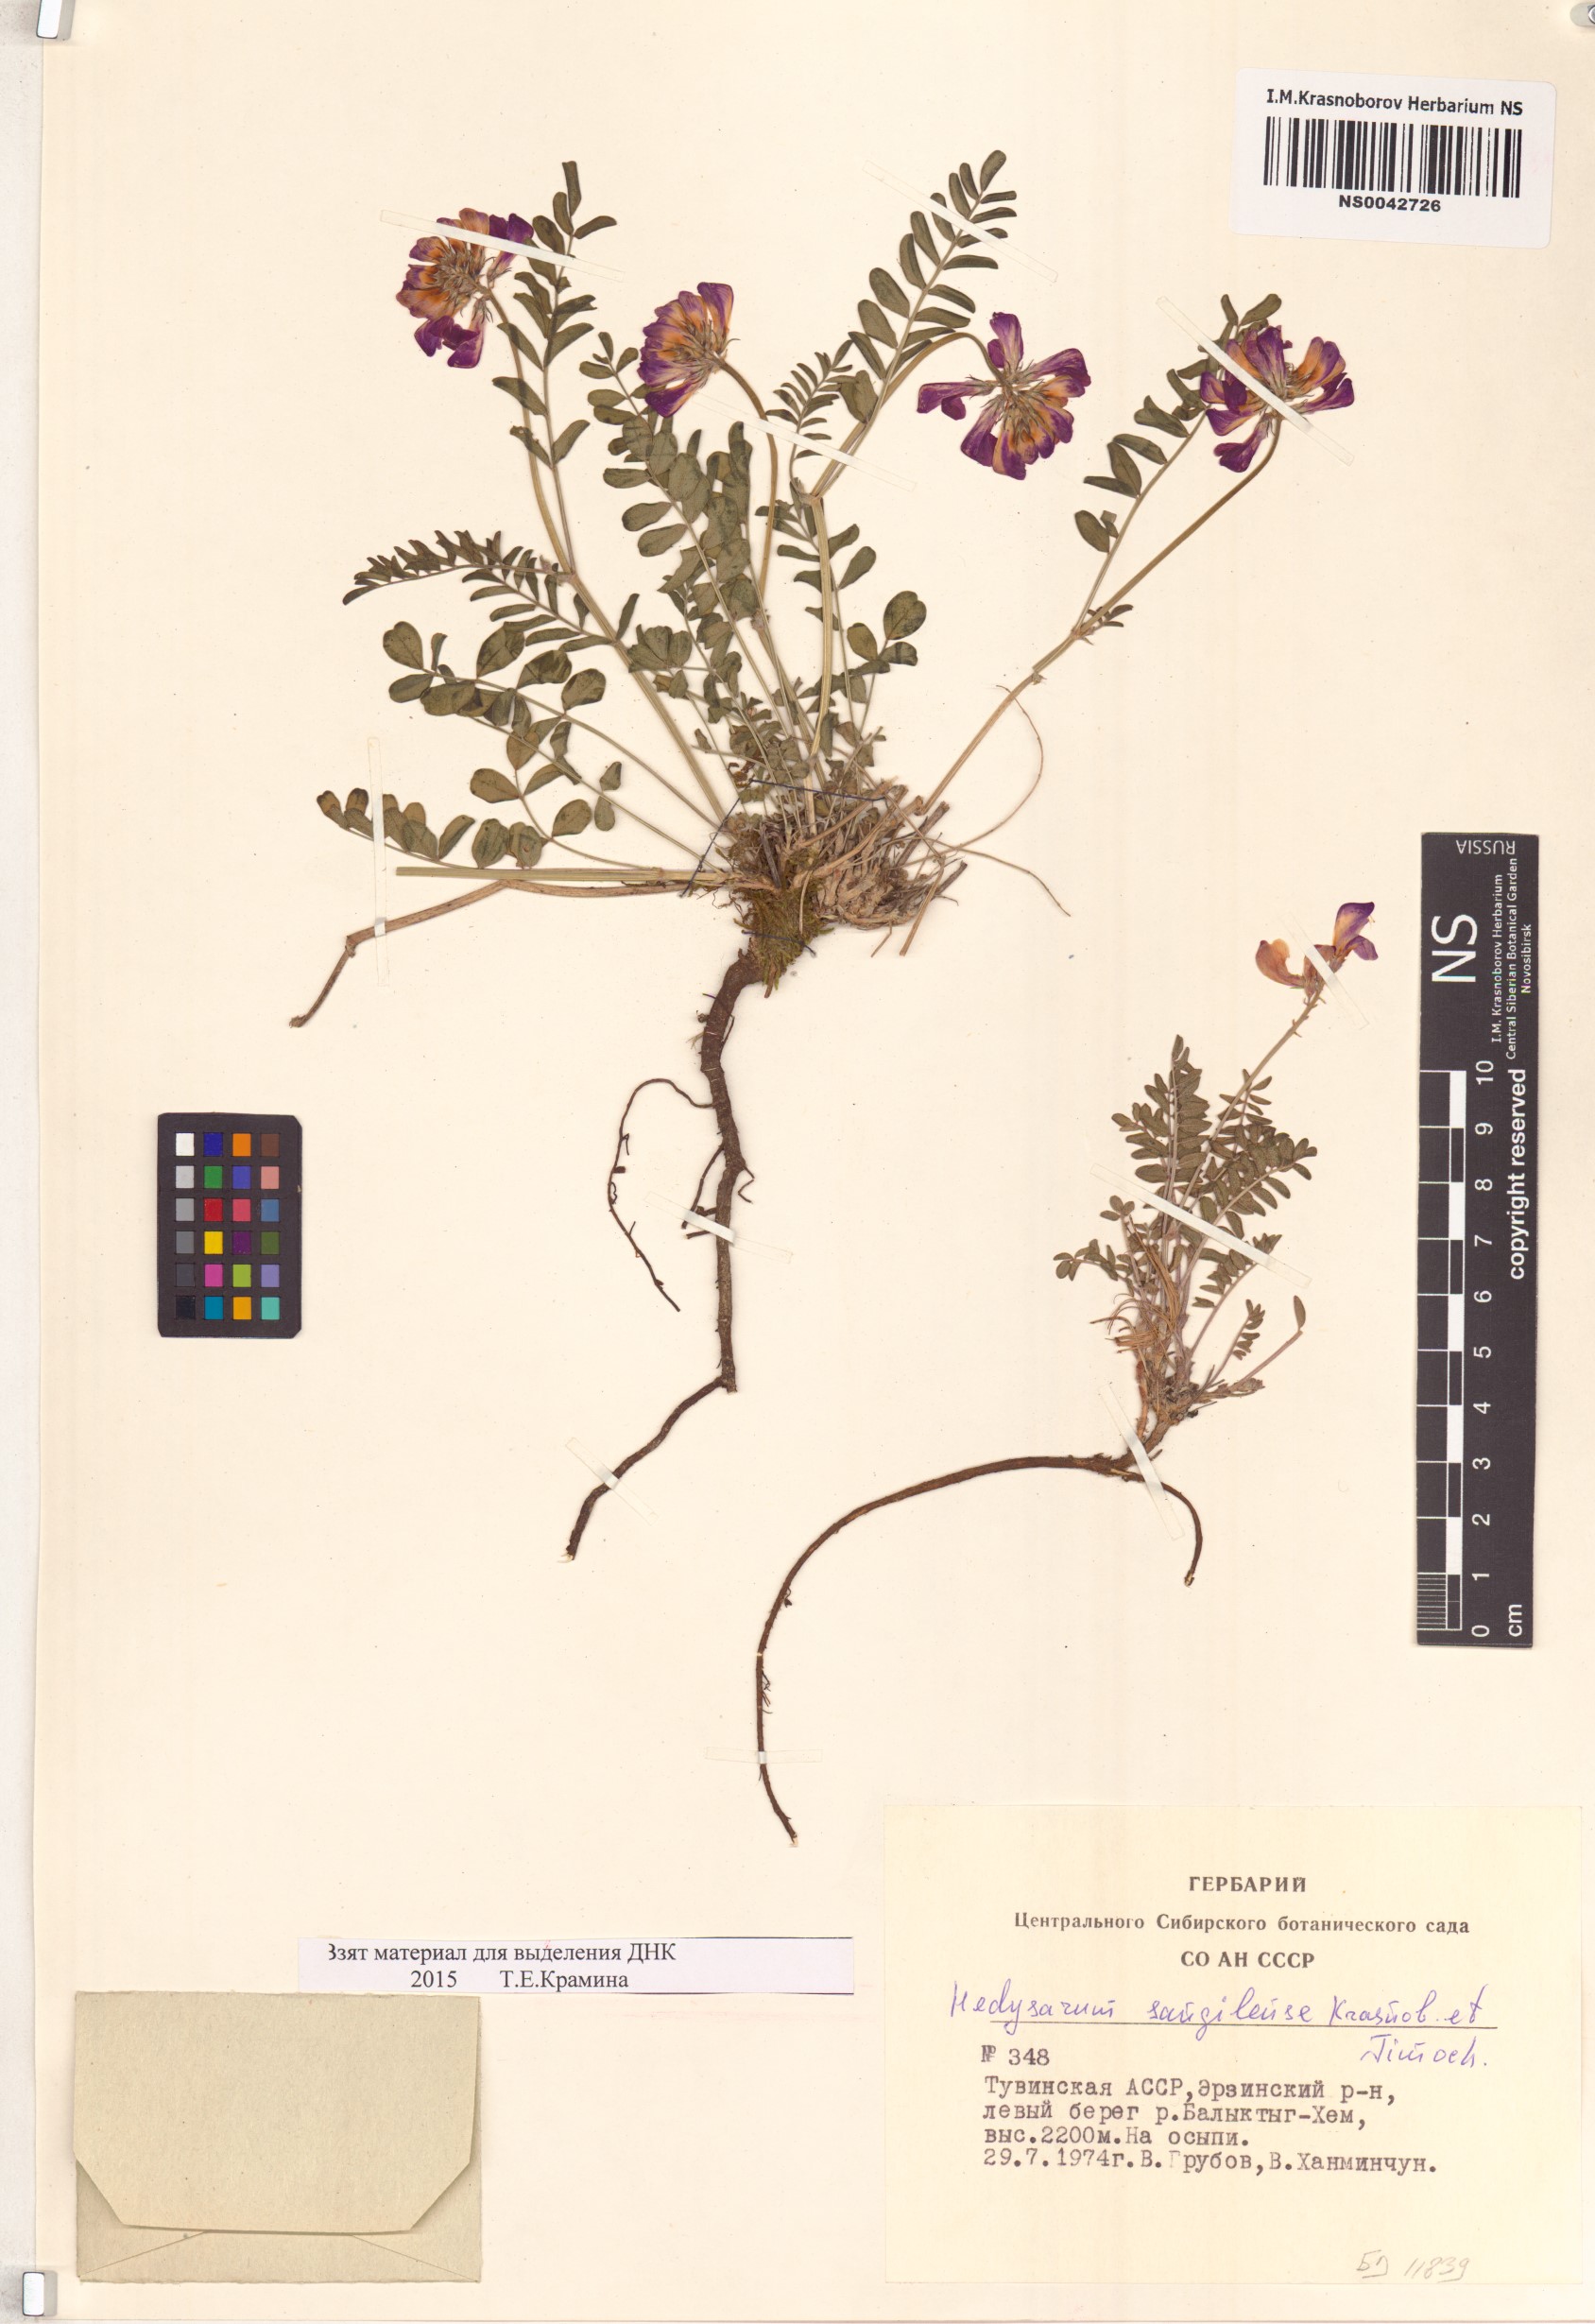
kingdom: Plantae
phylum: Tracheophyta
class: Magnoliopsida
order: Fabales
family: Fabaceae
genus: Hedysarum
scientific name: Hedysarum sangilense
